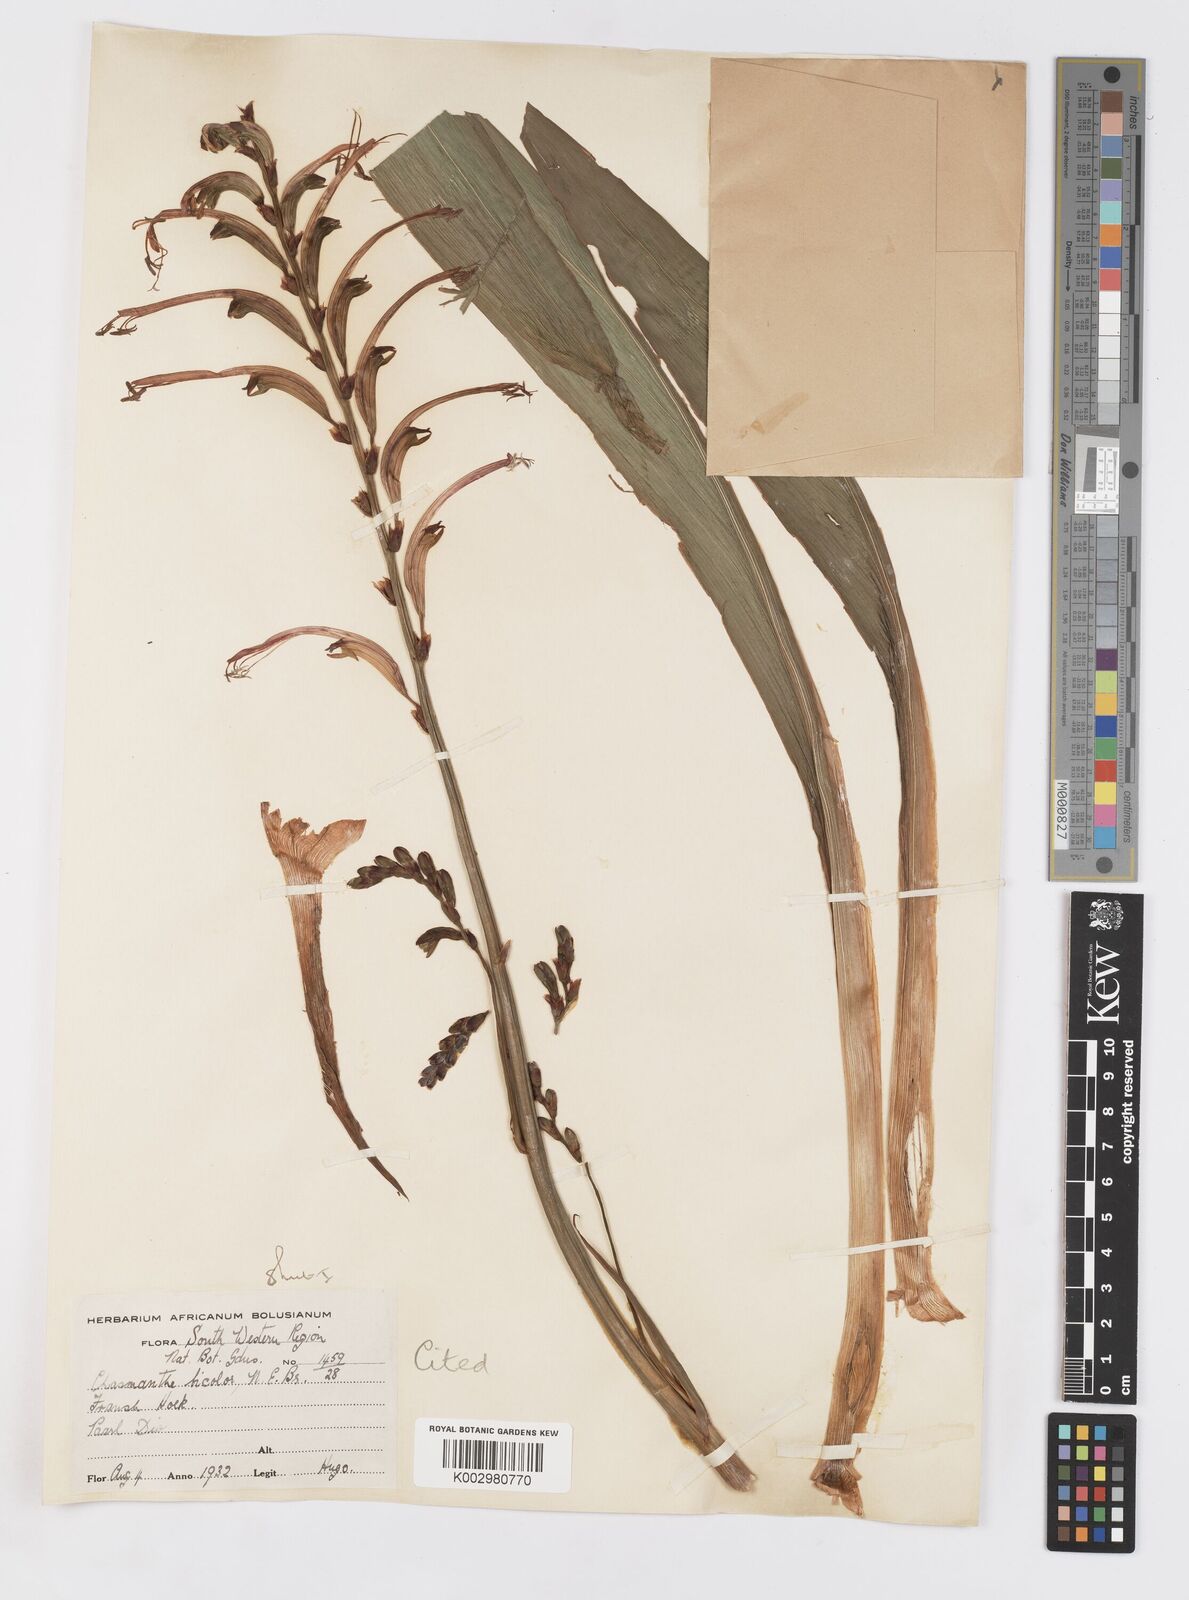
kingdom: Plantae
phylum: Tracheophyta
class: Liliopsida
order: Asparagales
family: Iridaceae
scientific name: Iridaceae
